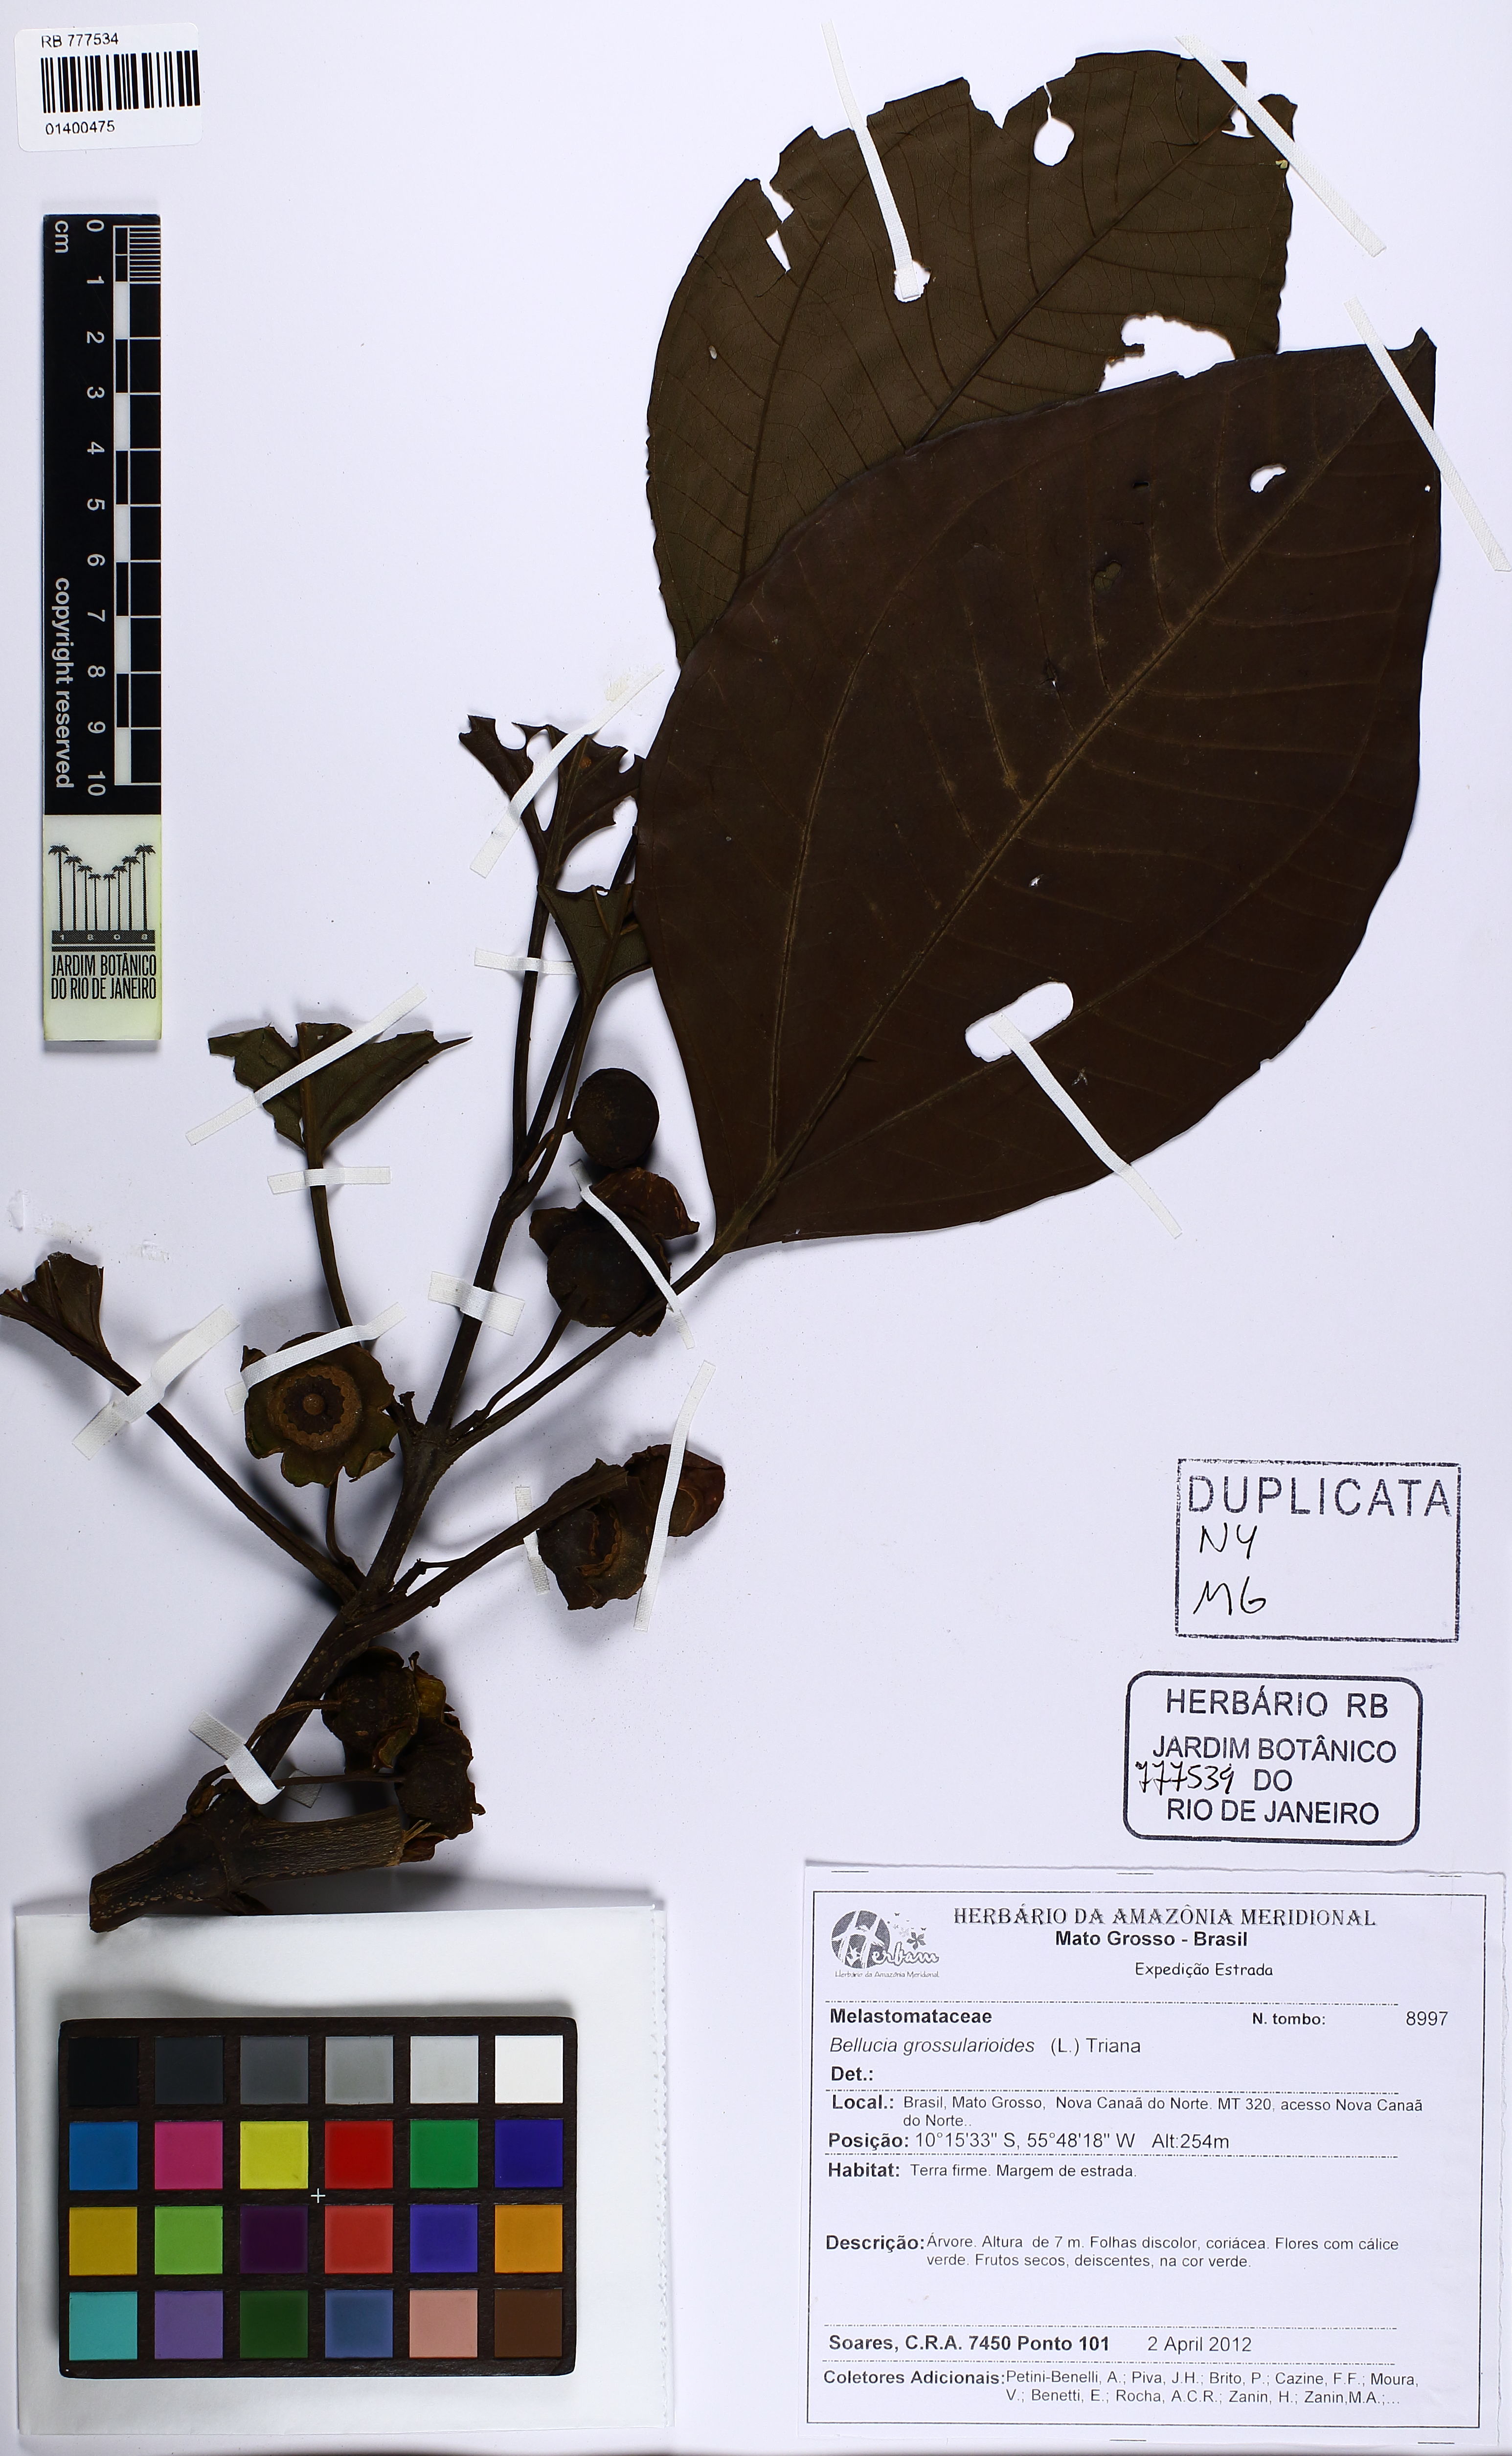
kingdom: Plantae
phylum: Tracheophyta
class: Magnoliopsida
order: Myrtales
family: Melastomataceae
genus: Bellucia
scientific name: Bellucia grossularioides
